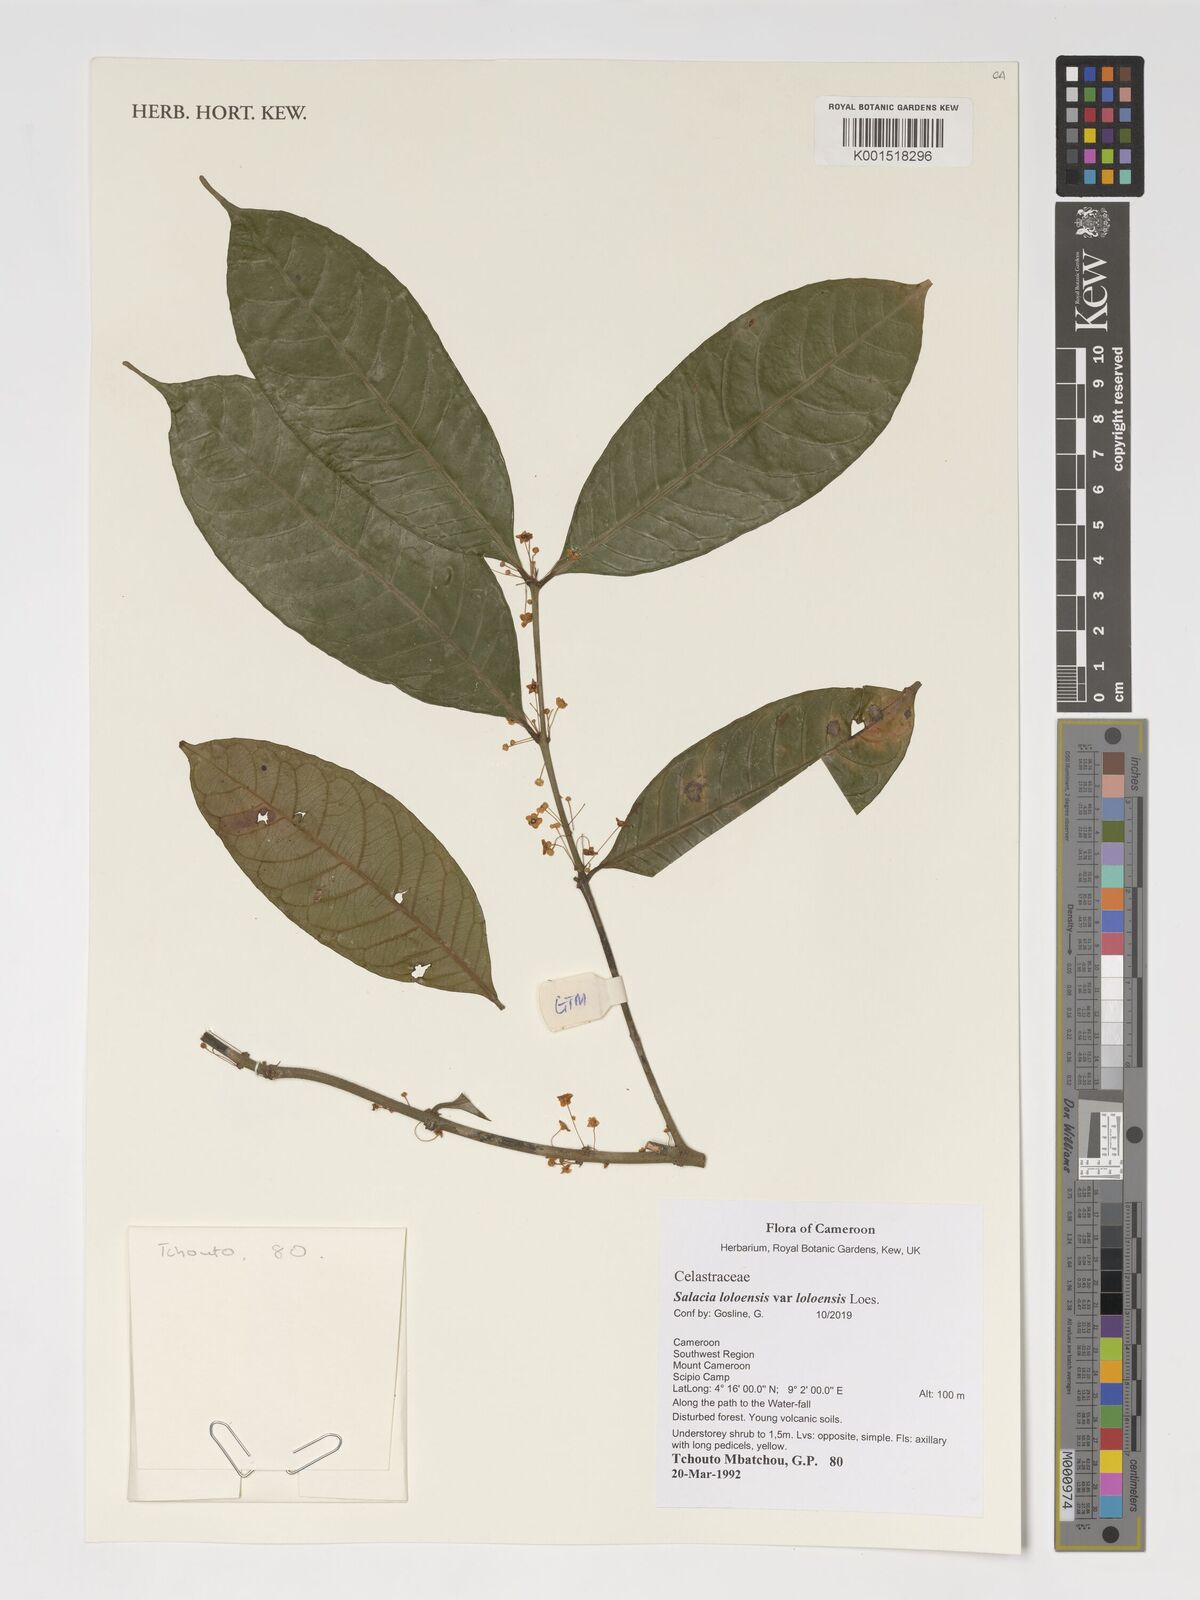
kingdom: Plantae
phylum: Tracheophyta
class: Magnoliopsida
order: Celastrales
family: Celastraceae
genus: Salacia
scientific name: Salacia loloensis
